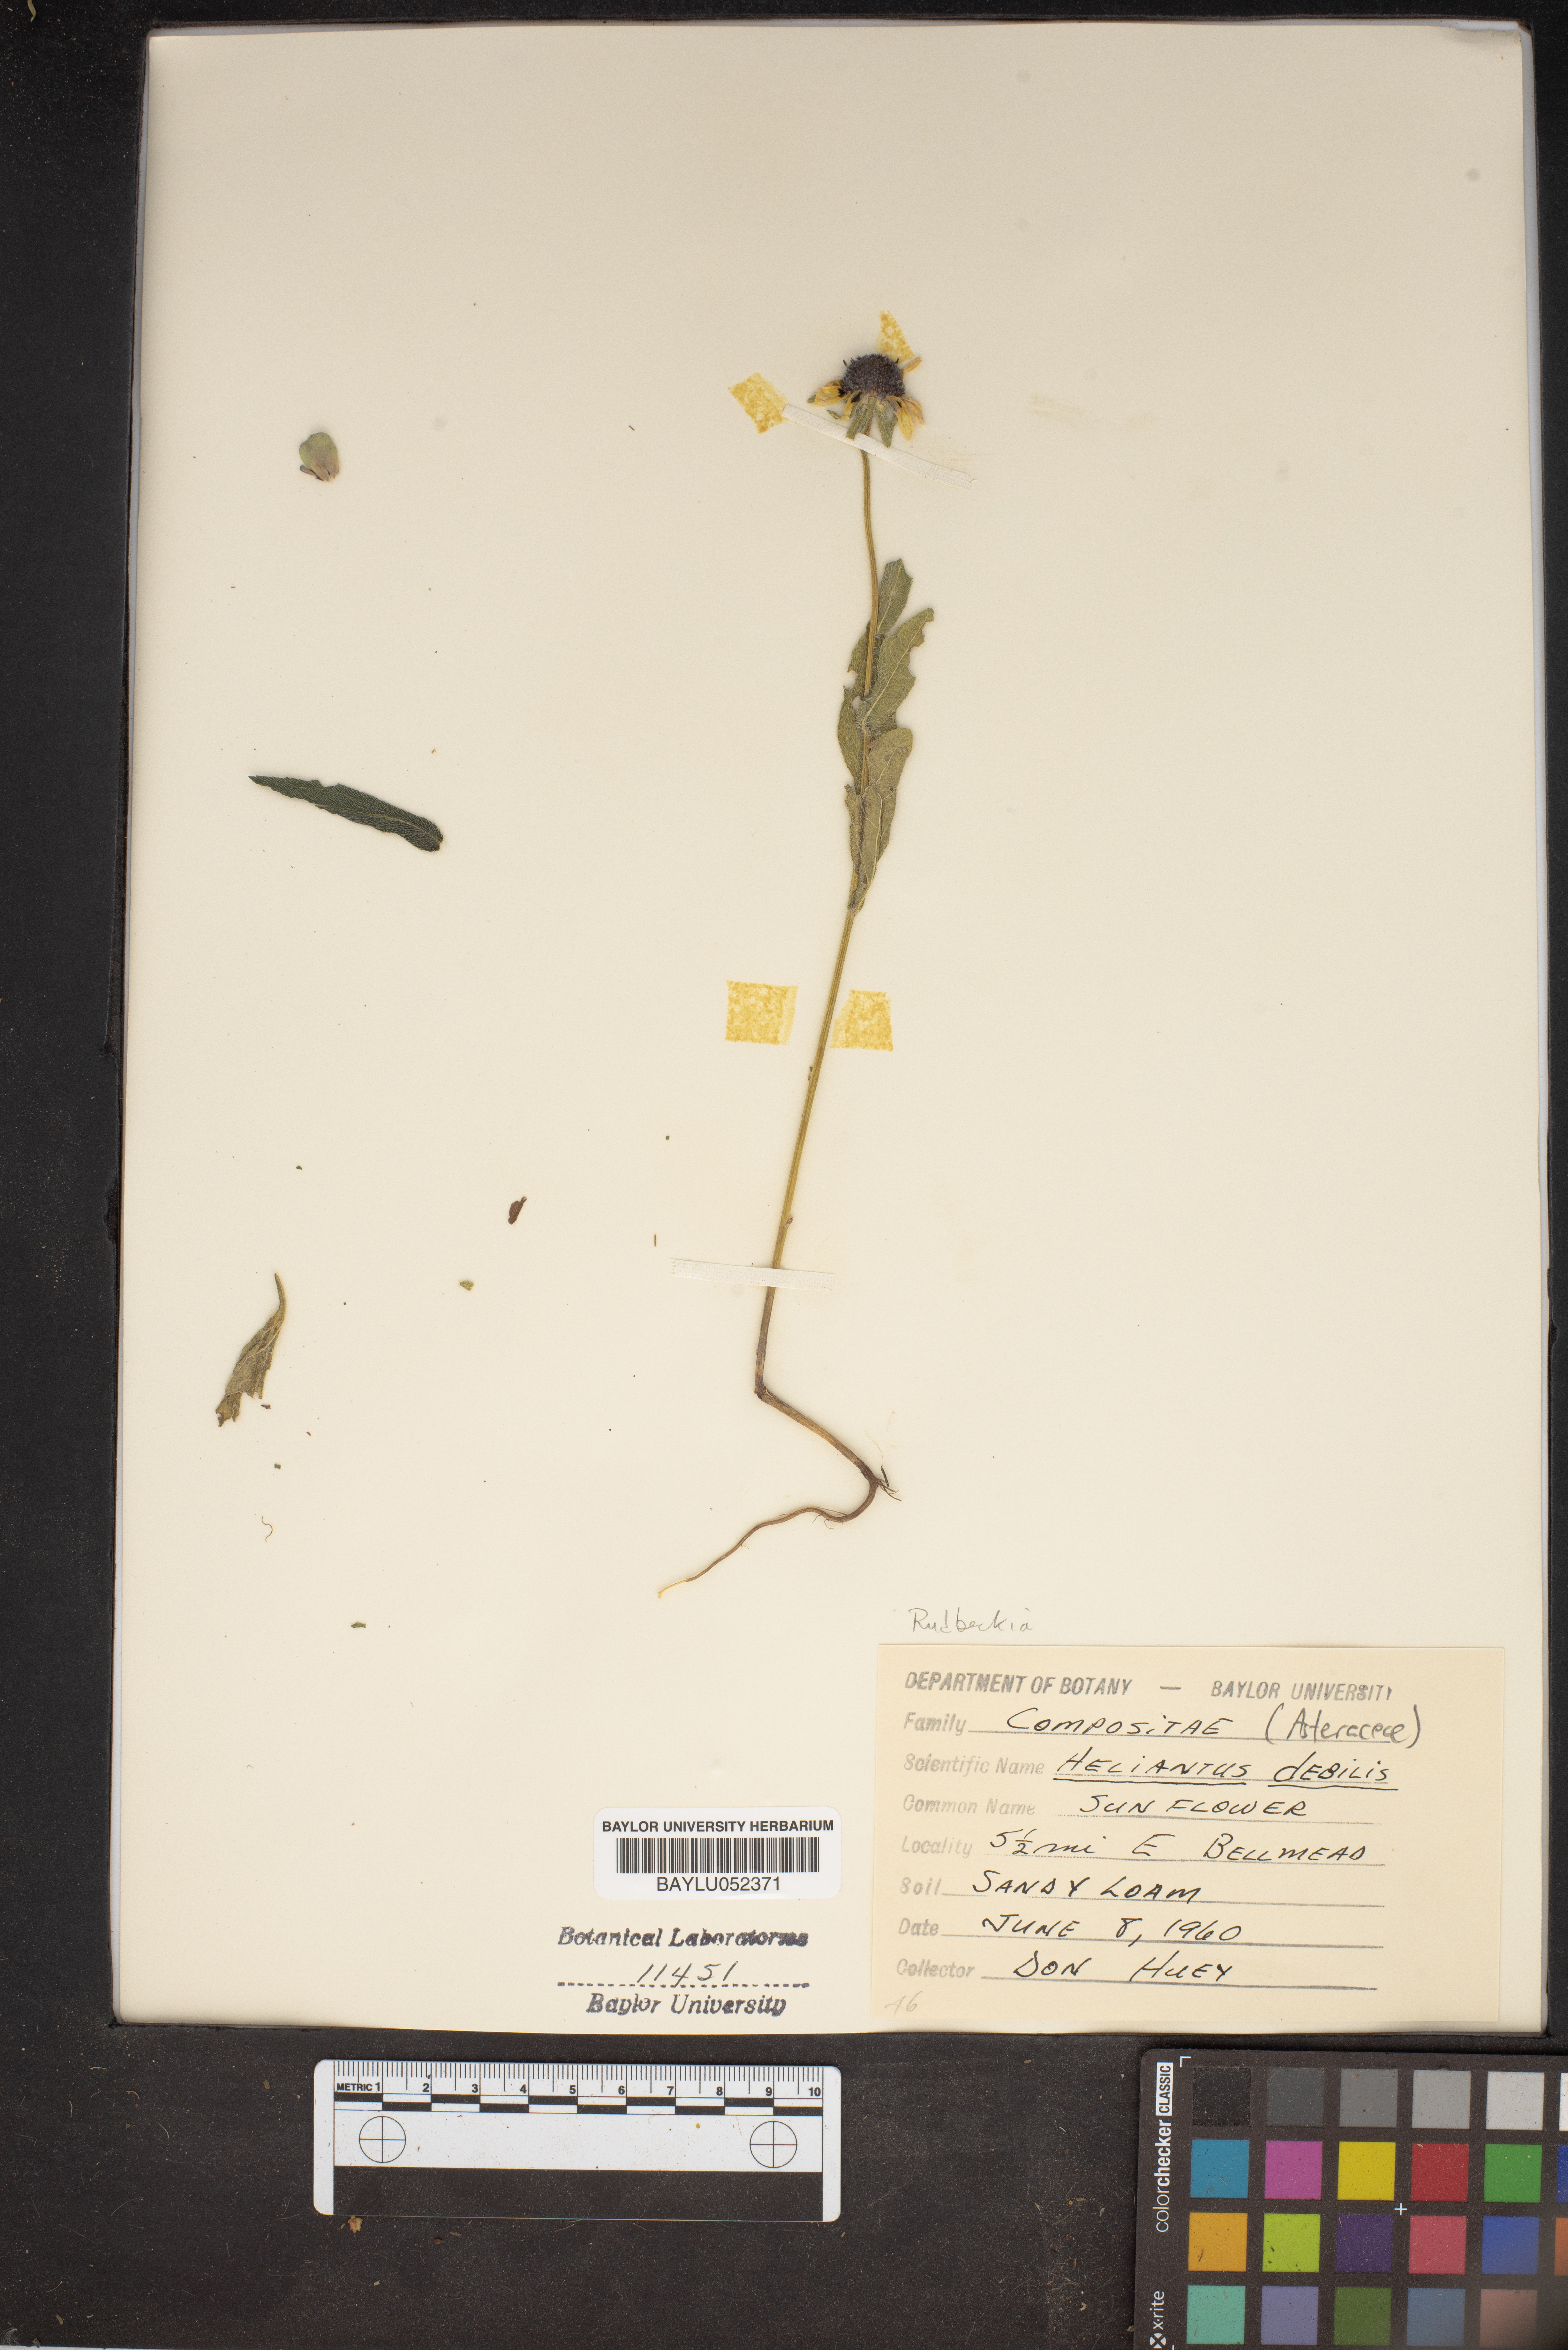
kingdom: Plantae
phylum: Tracheophyta
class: Magnoliopsida
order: Asterales
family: Asteraceae
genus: Helianthus
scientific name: Helianthus debilis
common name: Weak sunflower
